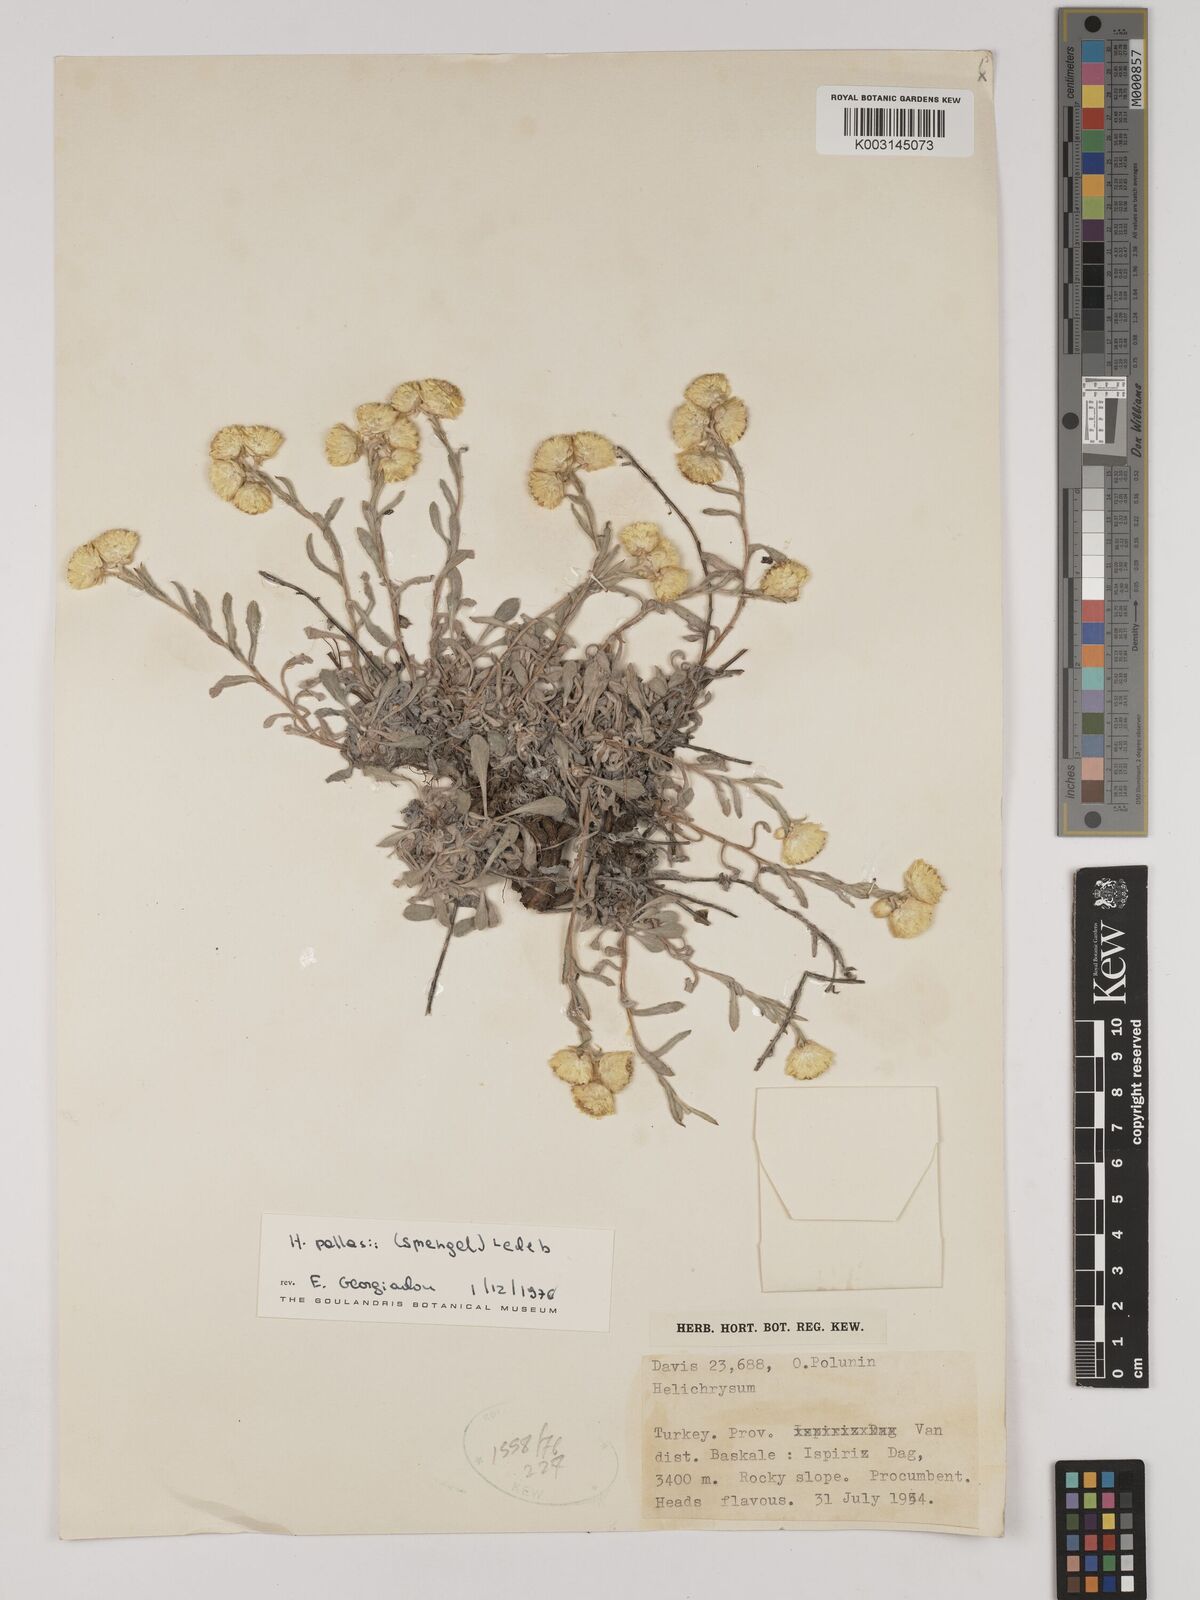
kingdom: Plantae
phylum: Tracheophyta
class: Magnoliopsida
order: Asterales
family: Asteraceae
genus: Helichrysum
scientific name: Helichrysum pallasii
